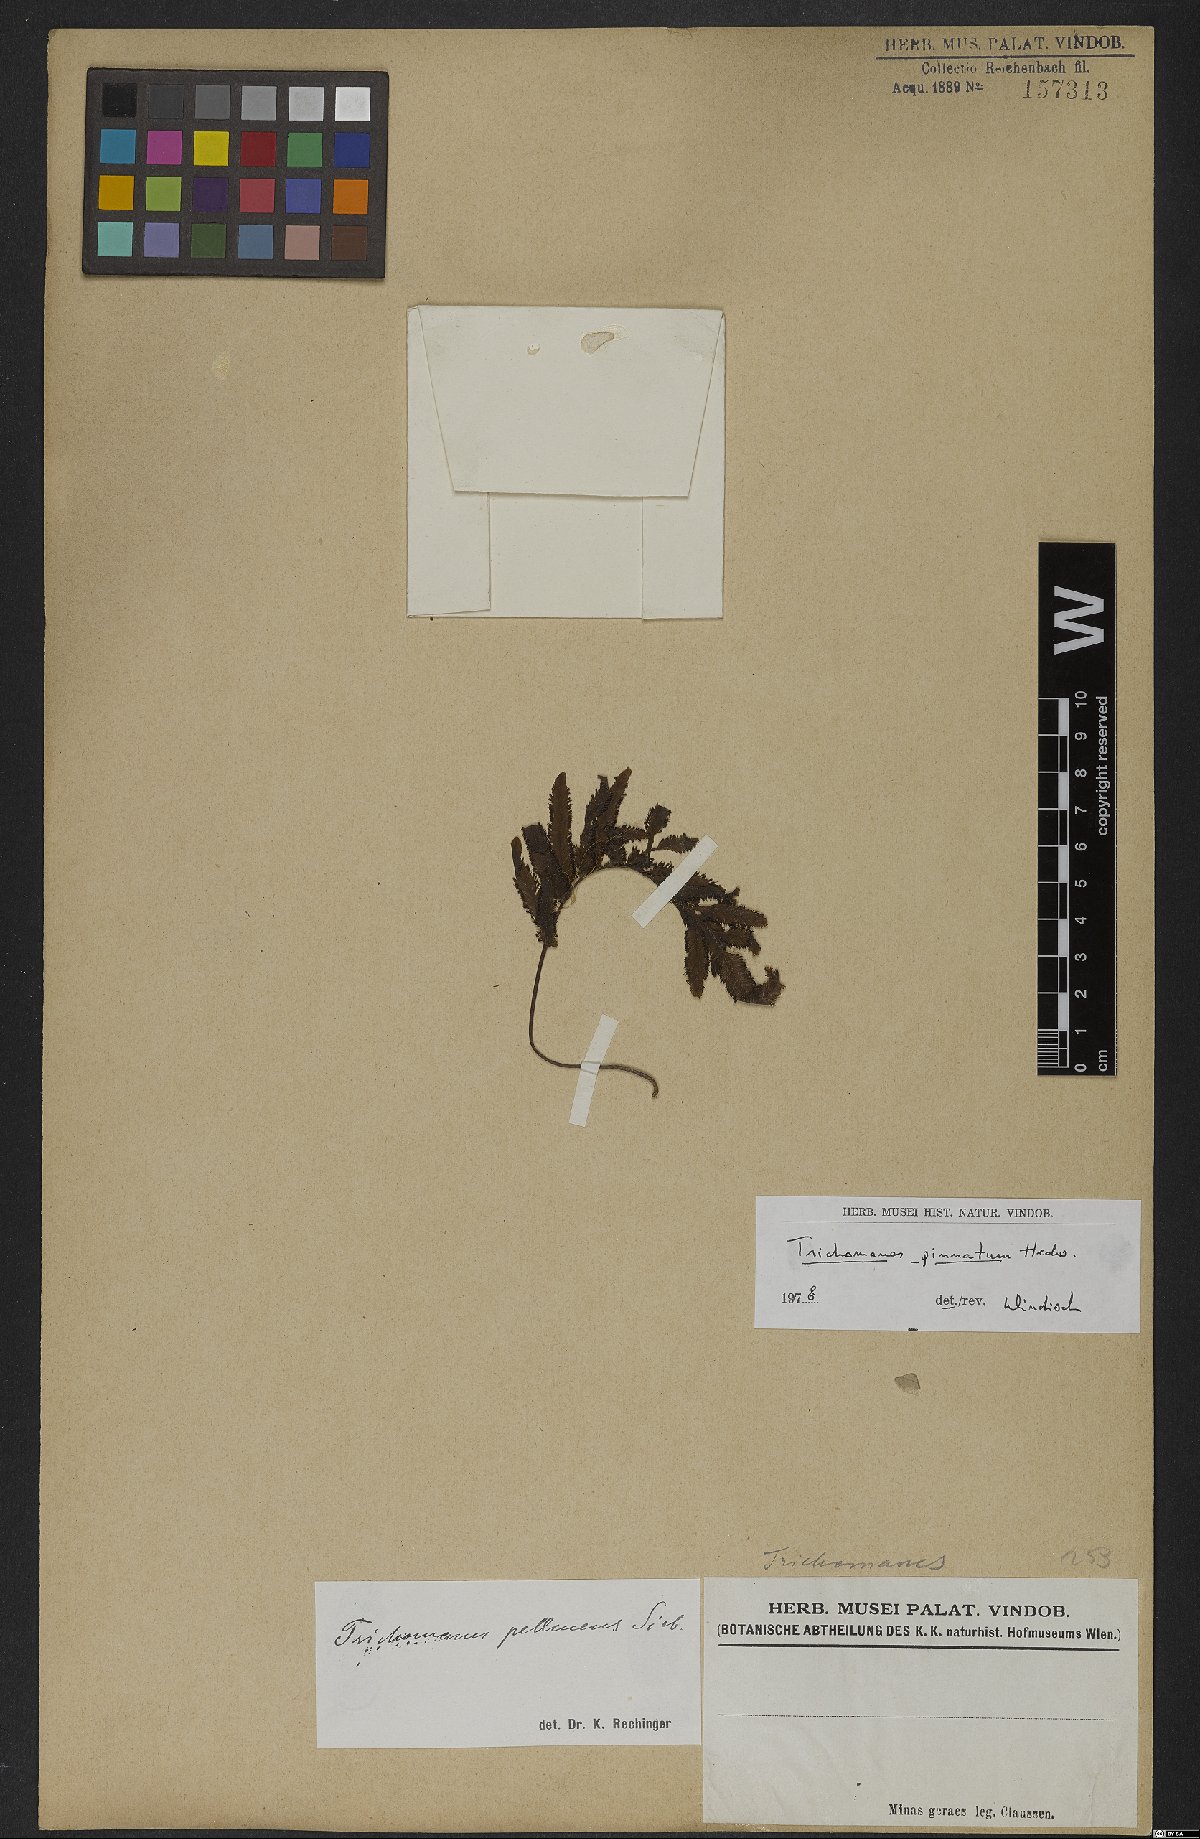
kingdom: Plantae
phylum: Tracheophyta
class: Polypodiopsida
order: Hymenophyllales
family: Hymenophyllaceae
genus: Trichomanes
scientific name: Trichomanes pinnatum
